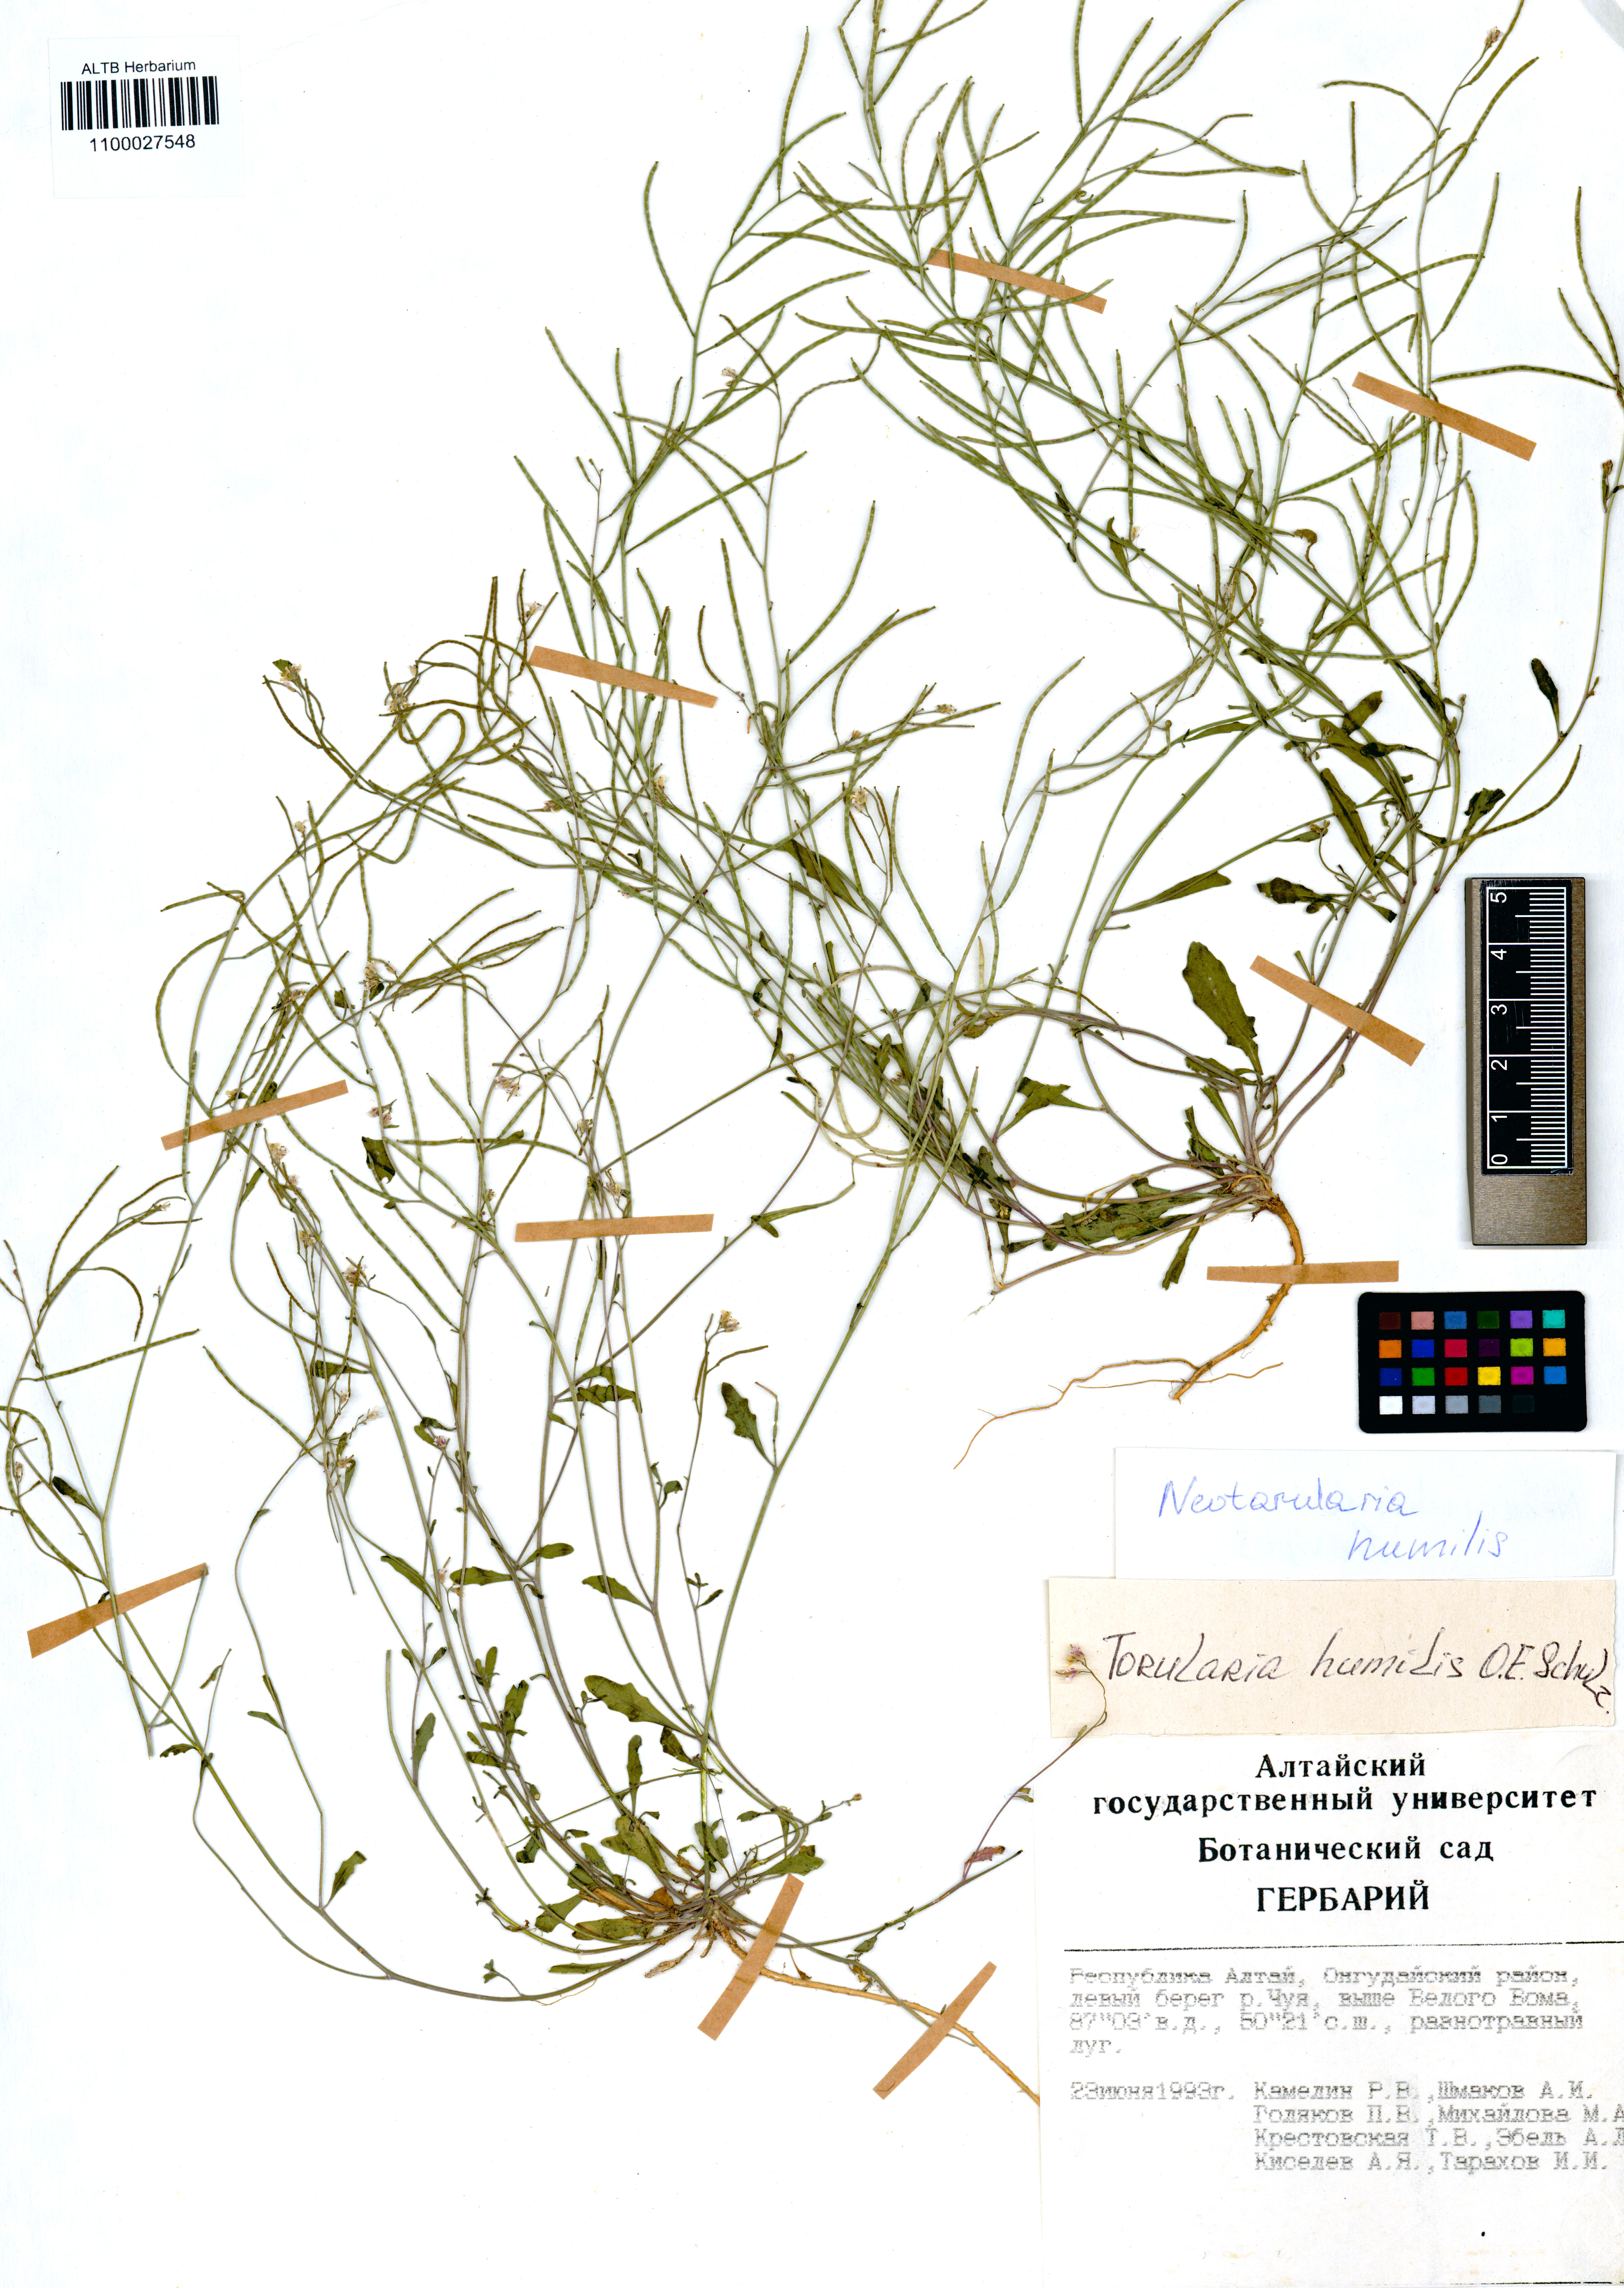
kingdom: Plantae
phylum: Tracheophyta
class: Magnoliopsida
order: Brassicales
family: Brassicaceae
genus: Braya
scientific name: Braya humilis
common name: Alpine northern rockcress
